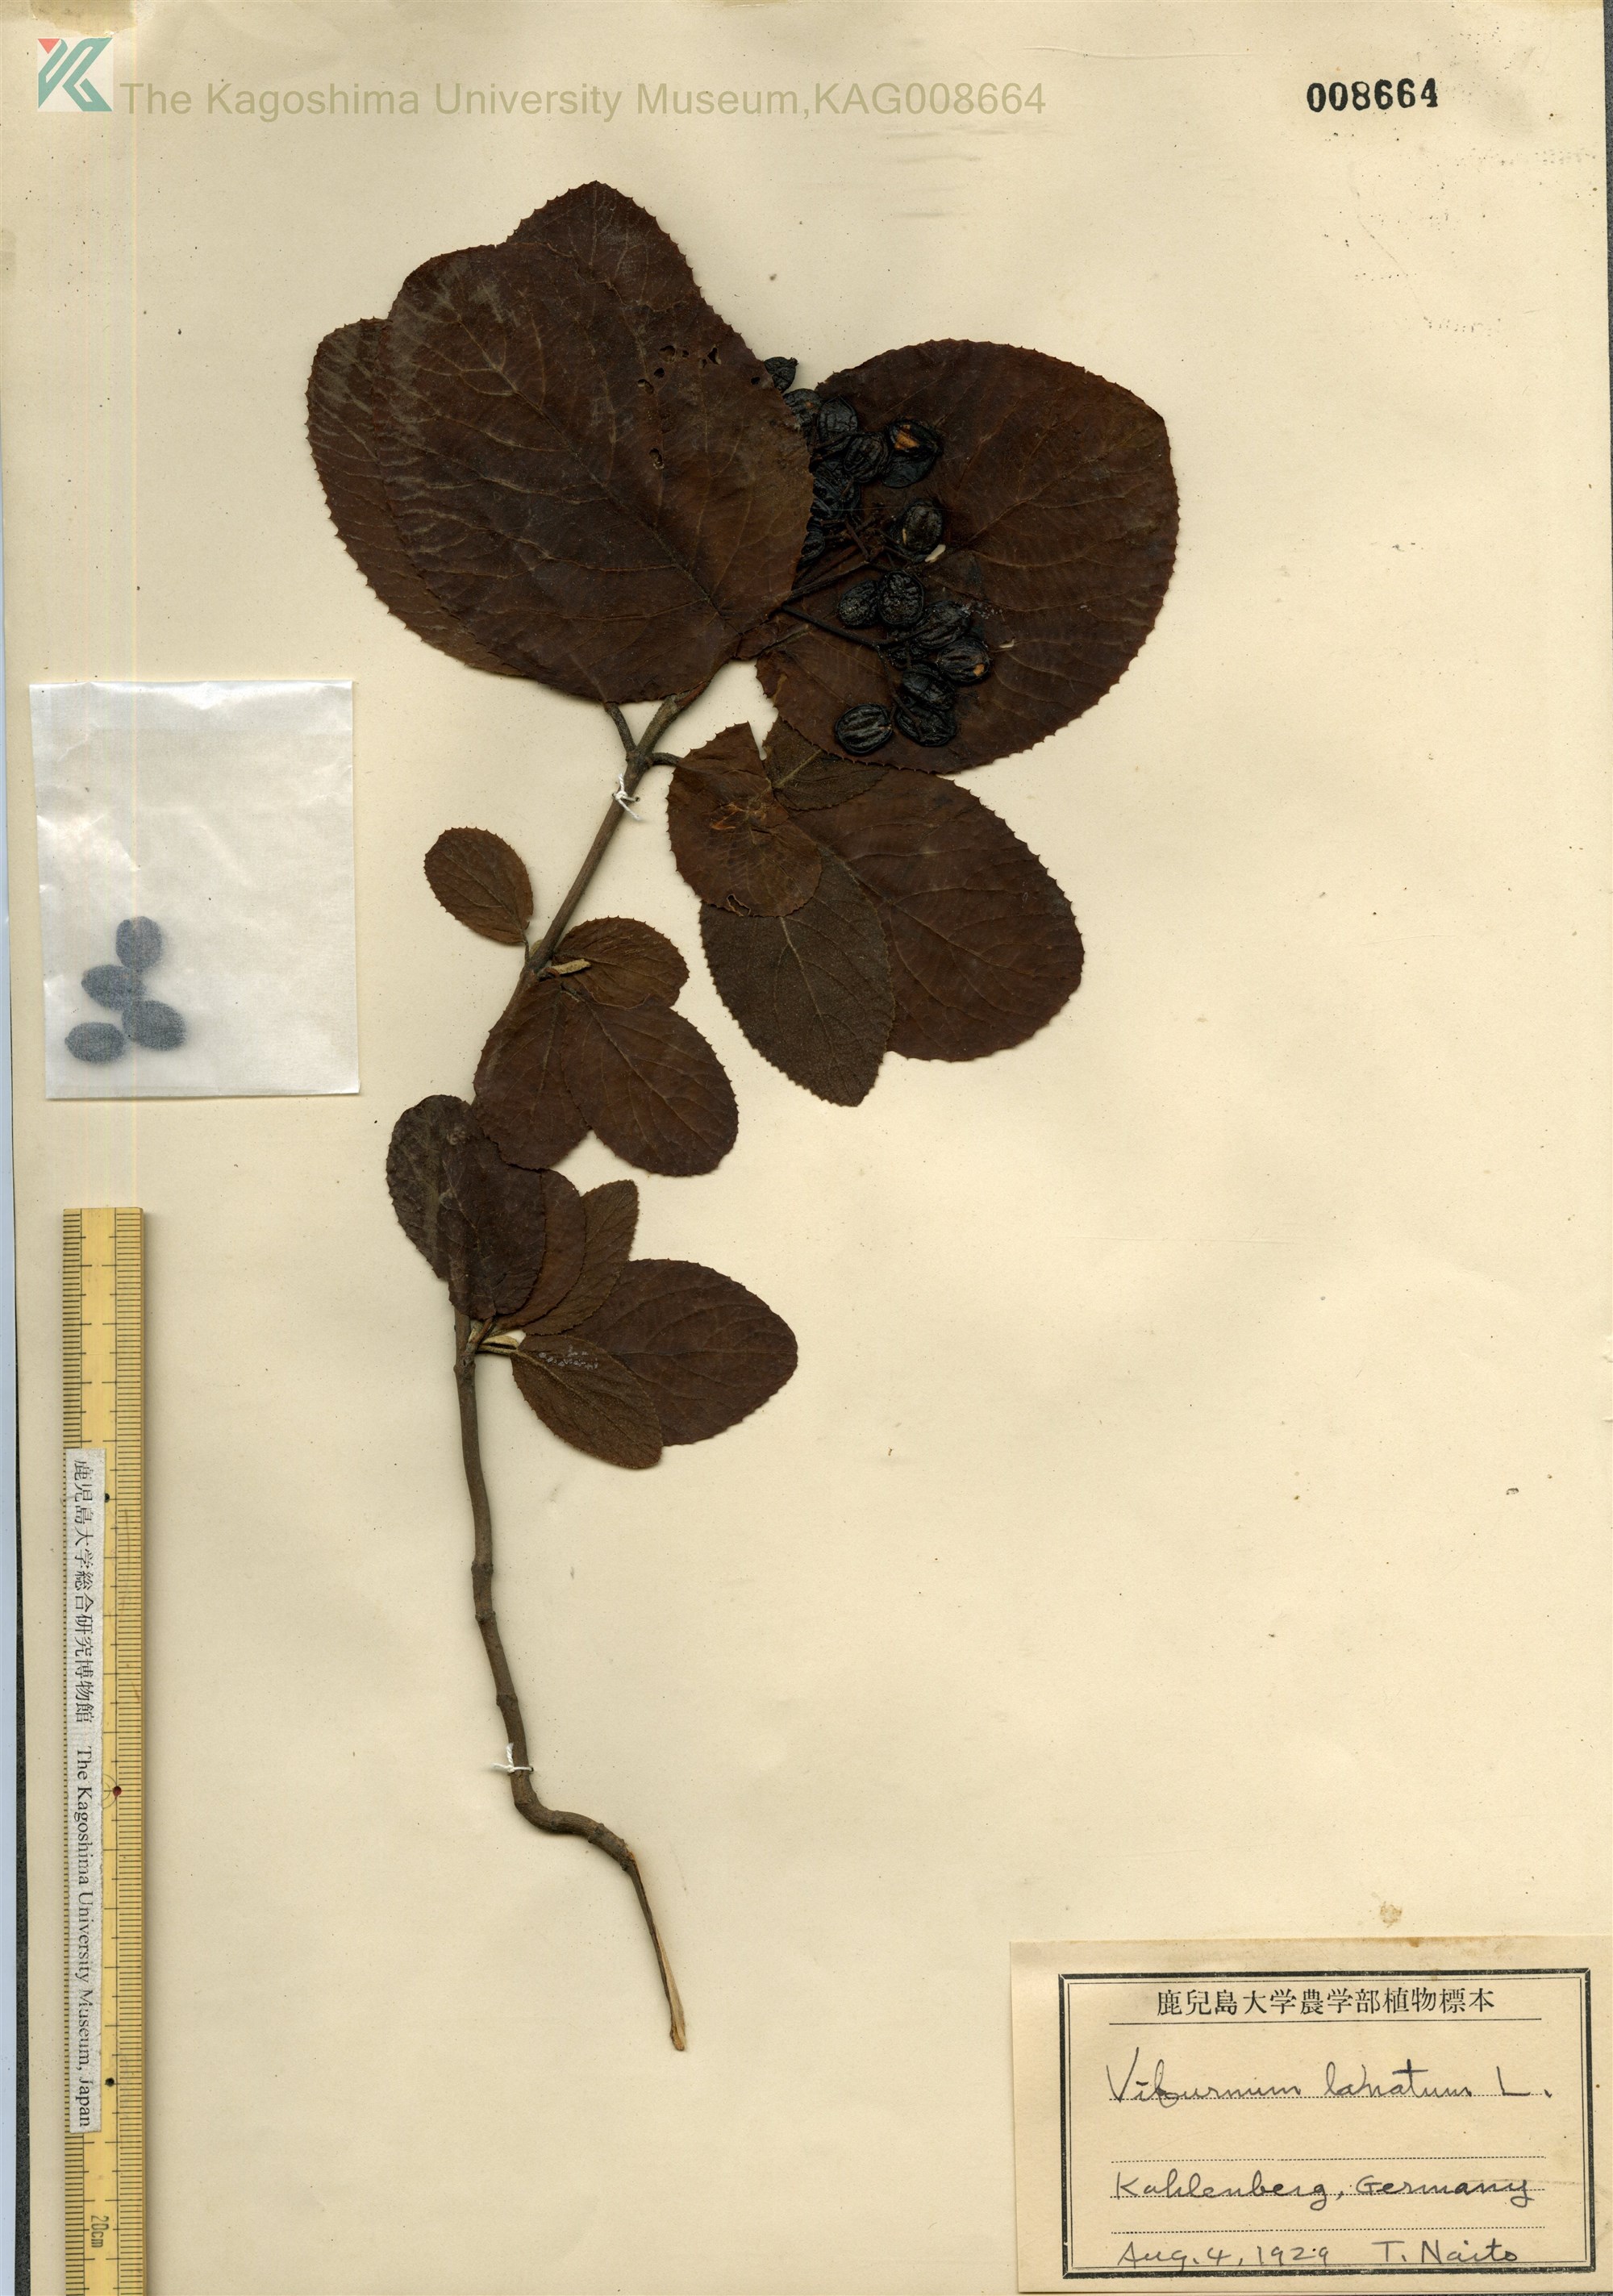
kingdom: Plantae
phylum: Tracheophyta
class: Magnoliopsida
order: Dipsacales
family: Viburnaceae
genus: Viburnum
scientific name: Viburnum lantana
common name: Wayfaring tree
